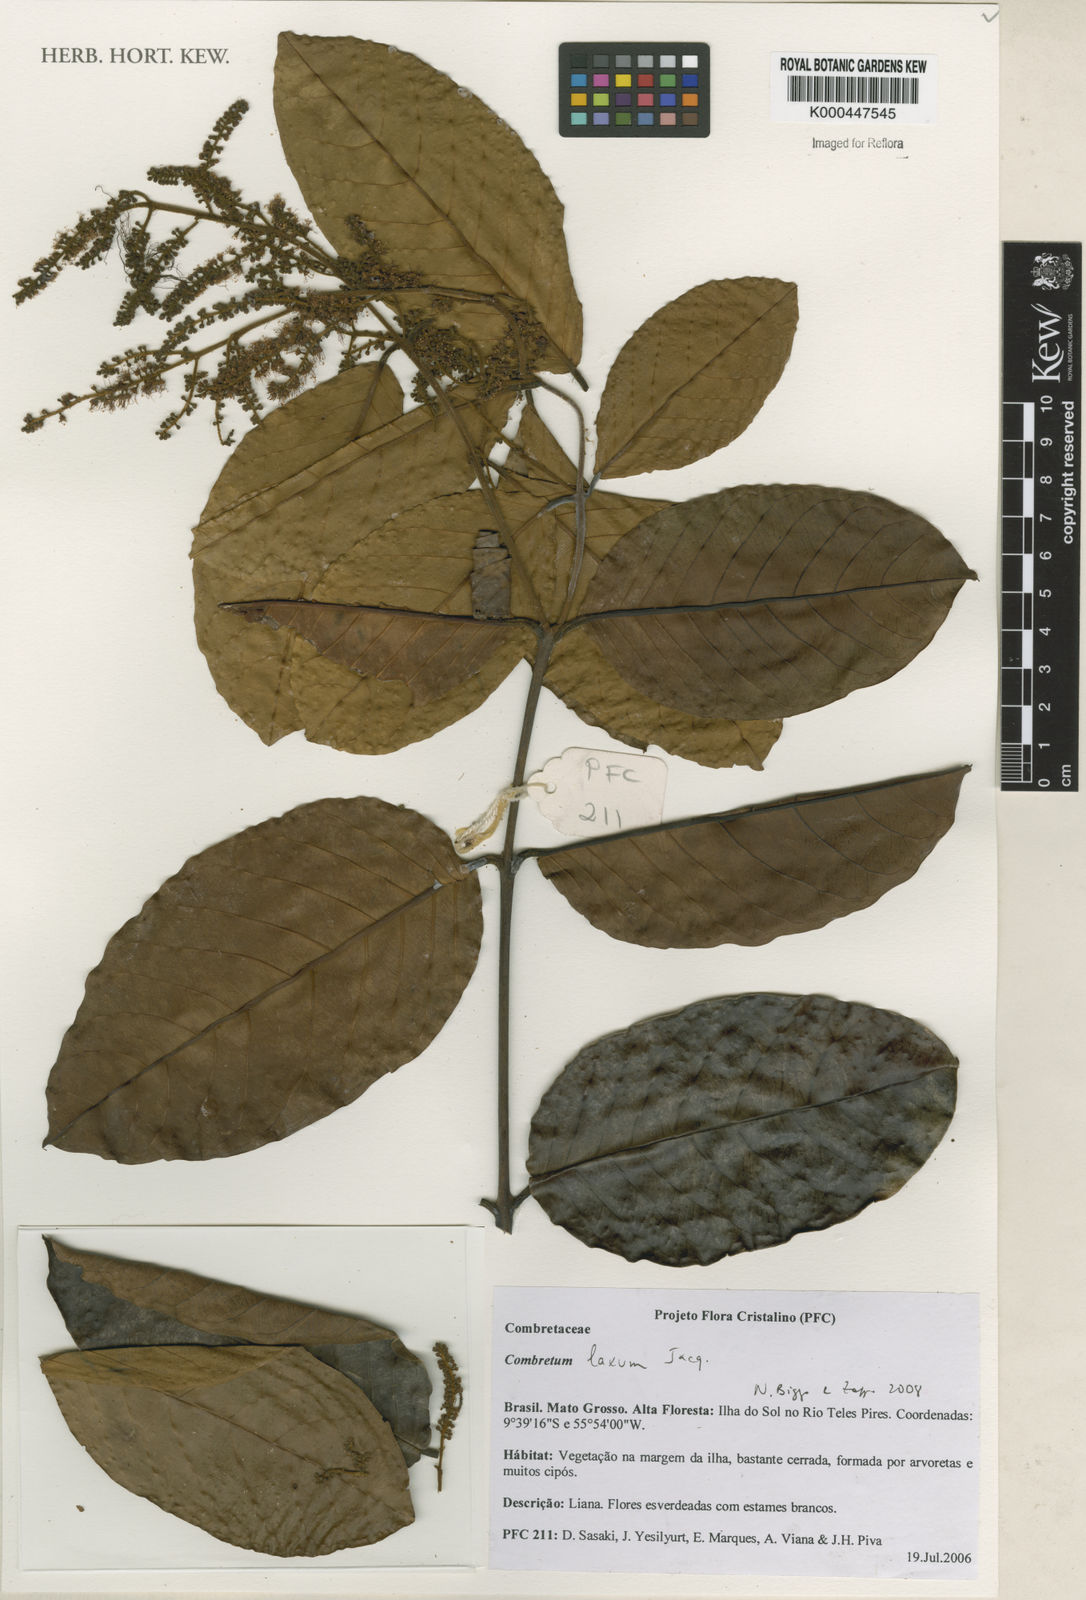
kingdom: Plantae
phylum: Tracheophyta
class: Magnoliopsida
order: Myrtales
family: Combretaceae
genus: Combretum
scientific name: Combretum laxum
